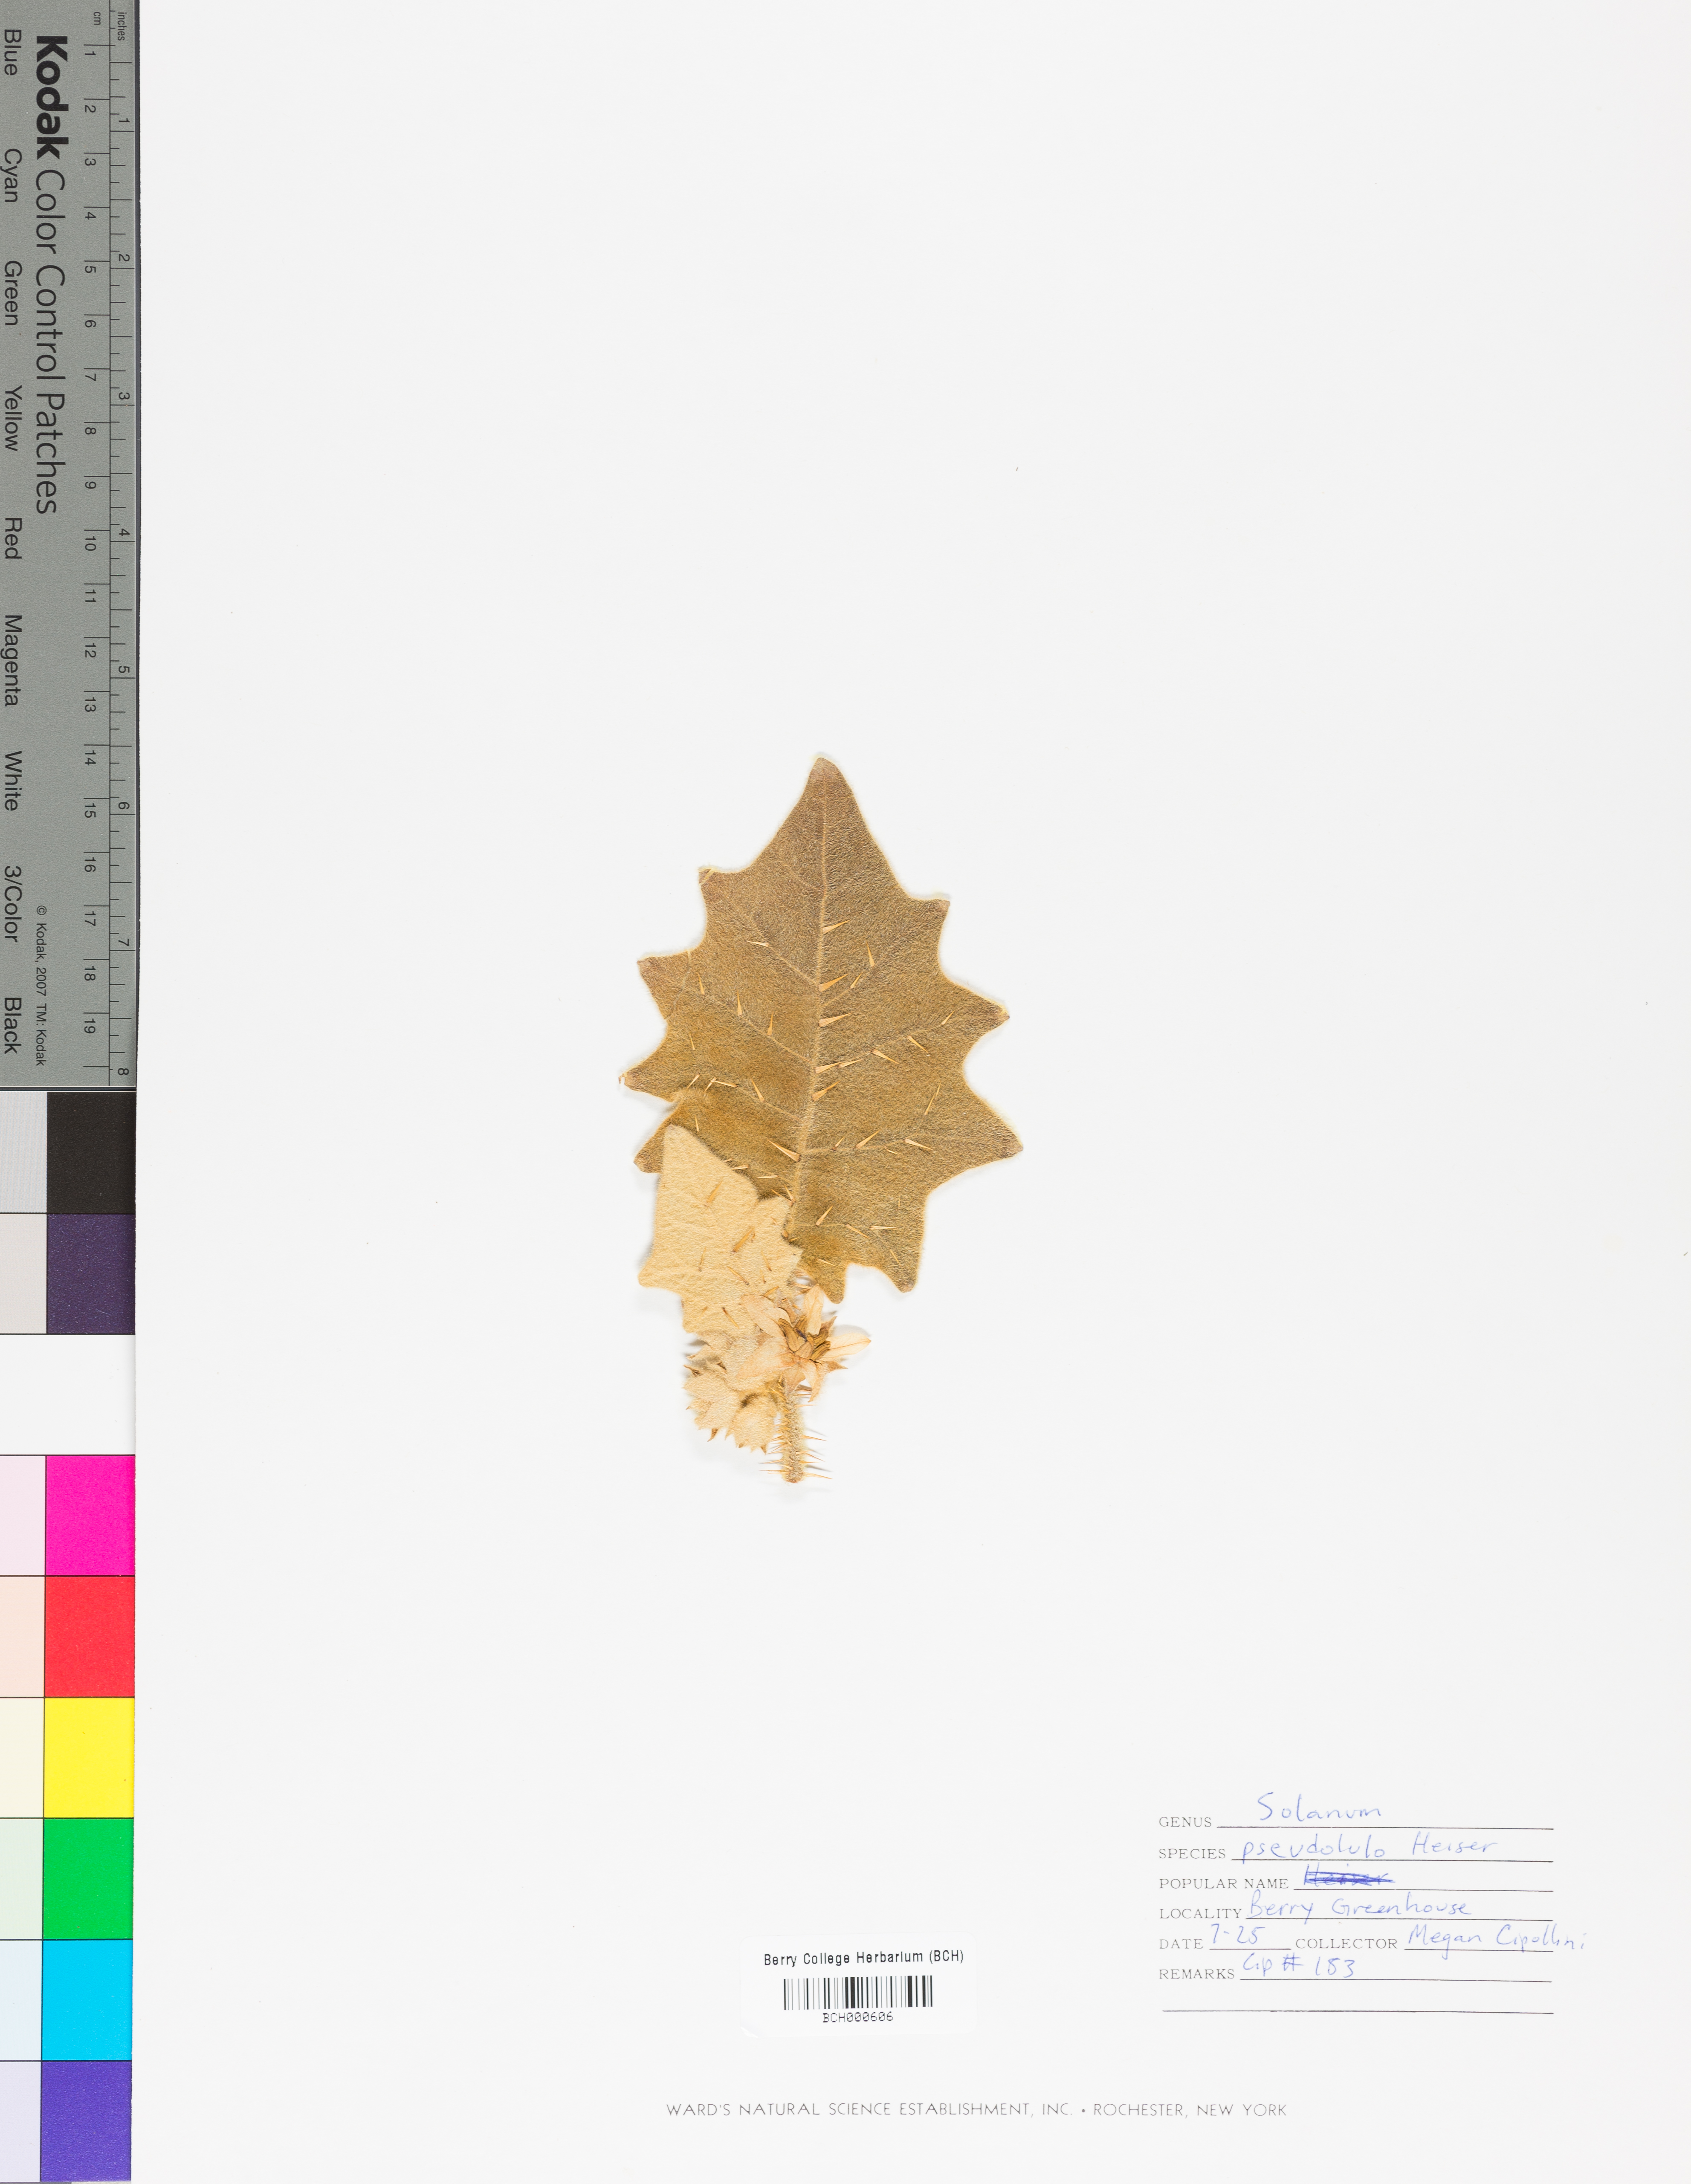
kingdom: Plantae
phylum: Tracheophyta
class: Magnoliopsida
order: Solanales
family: Solanaceae
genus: Solanum
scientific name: Solanum pseudolulo
